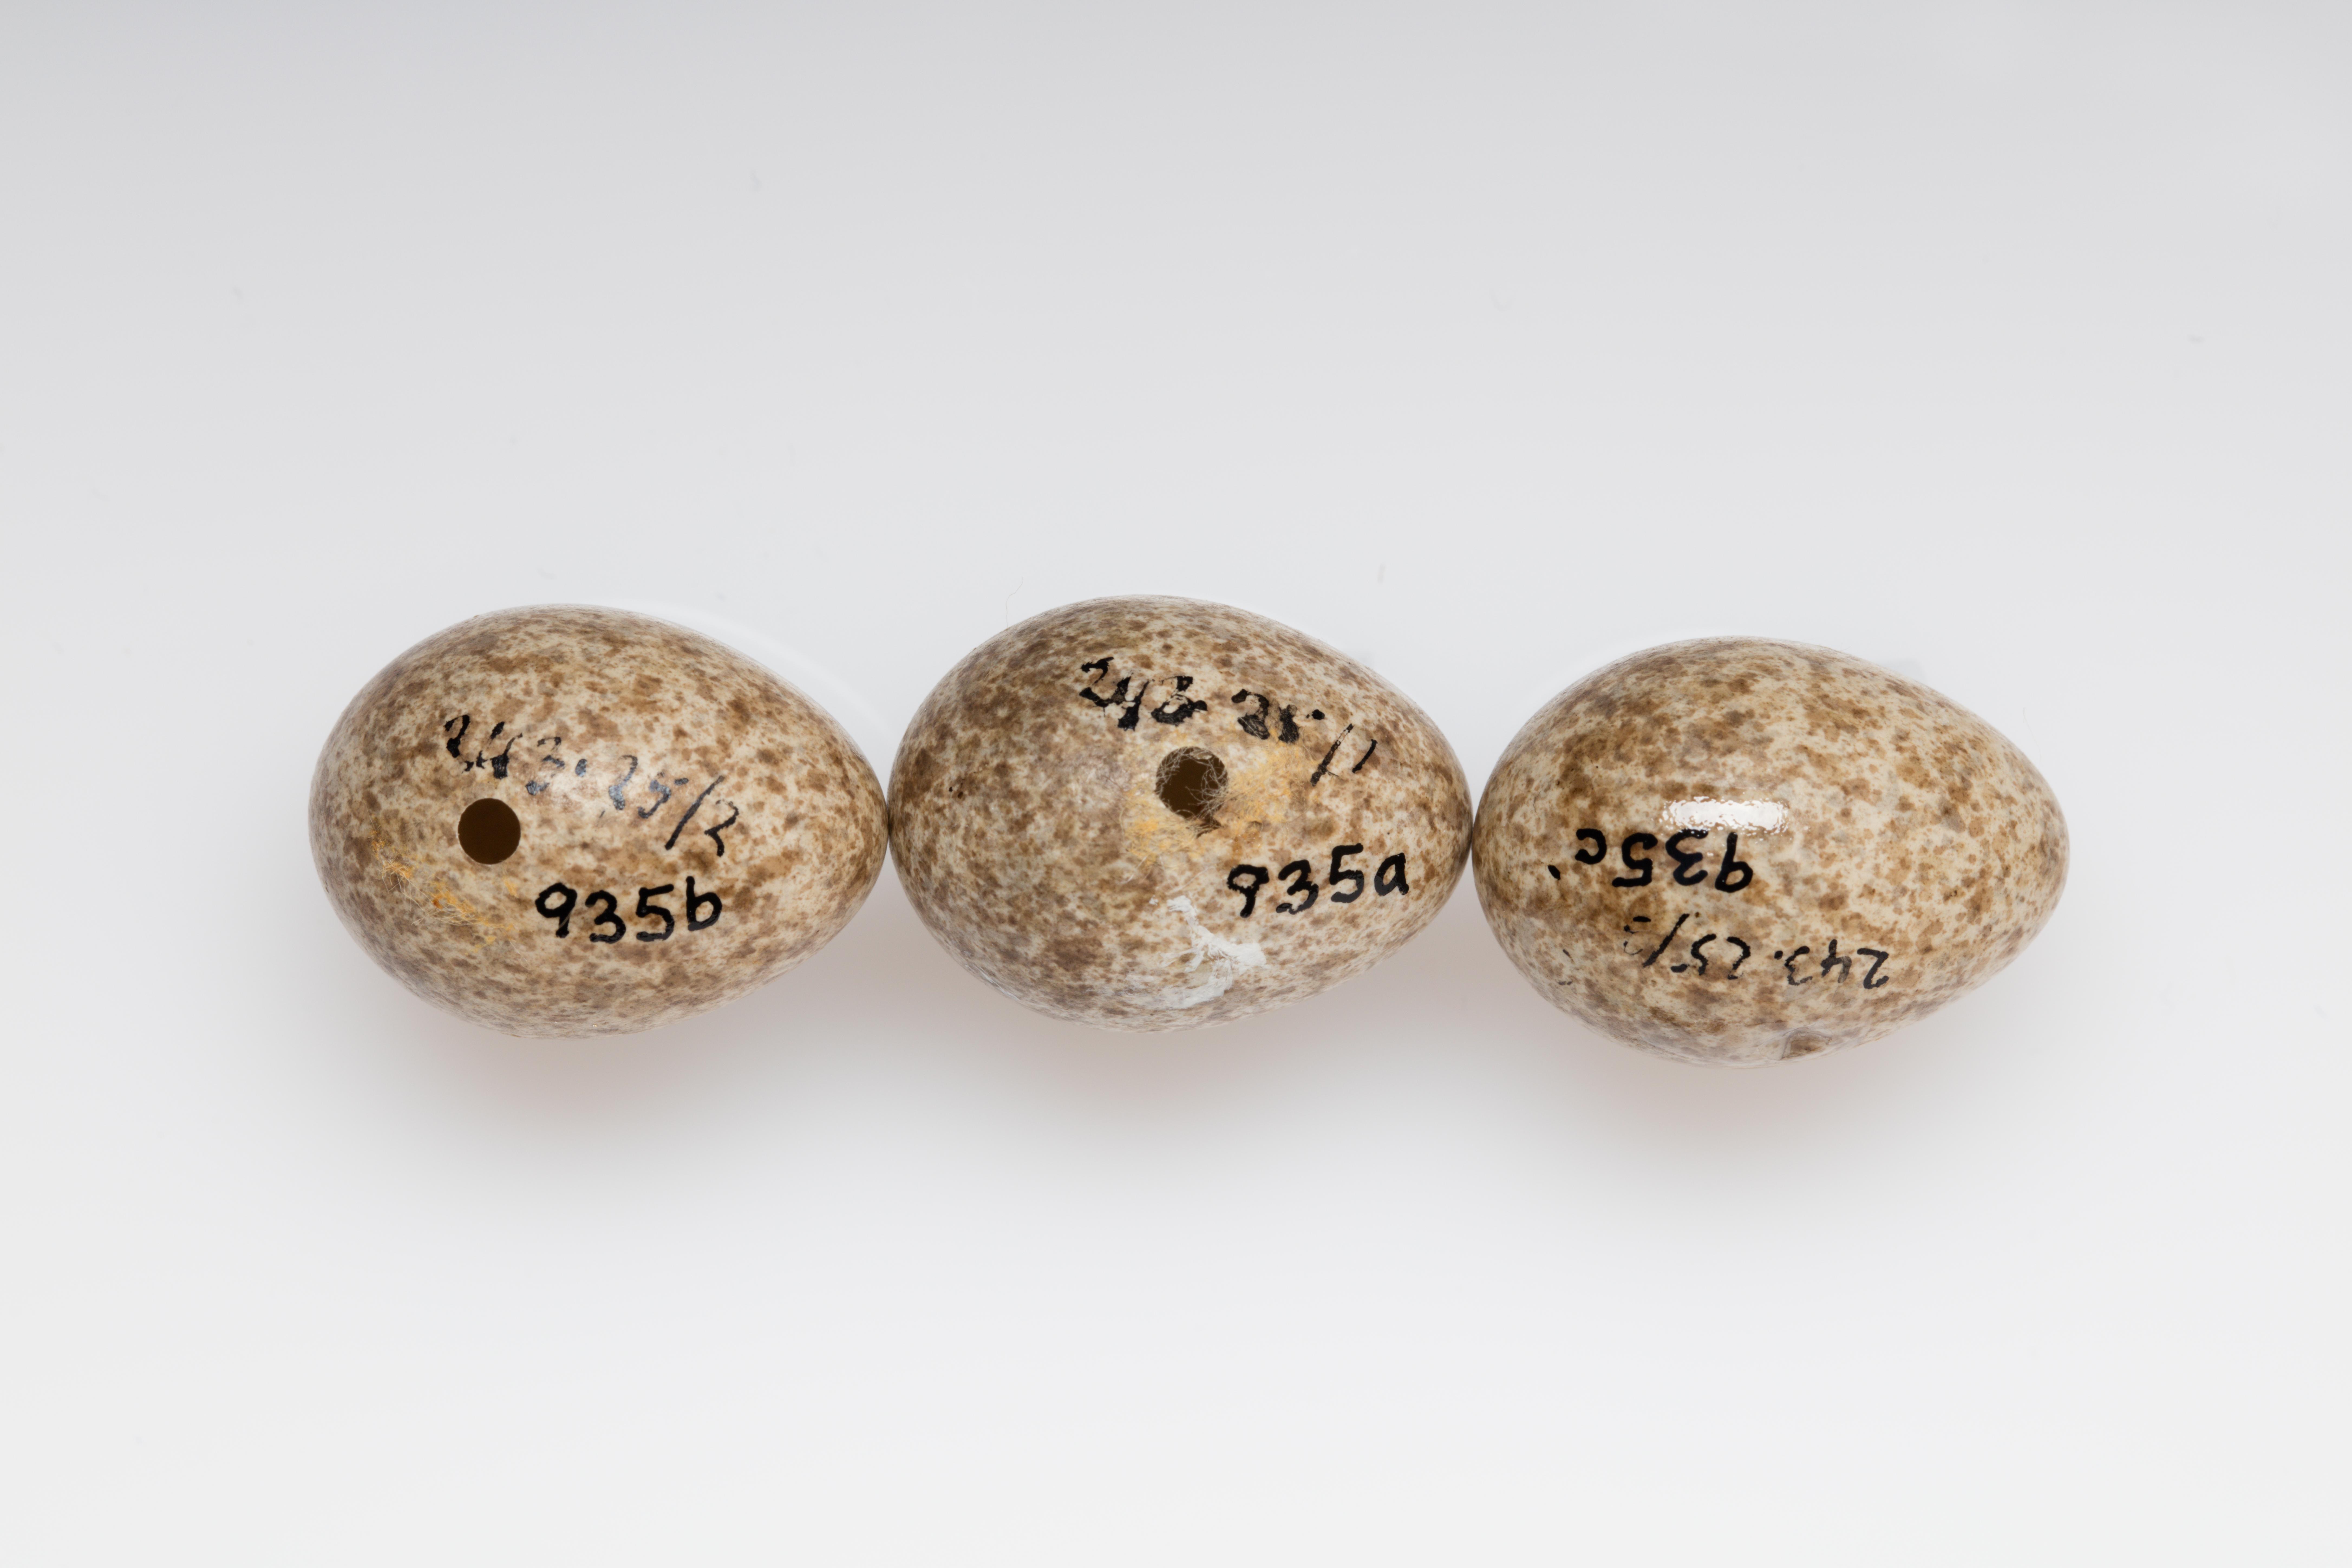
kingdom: Animalia
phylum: Chordata
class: Aves
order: Passeriformes
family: Alaudidae
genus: Alauda
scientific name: Alauda arvensis
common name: Eurasian skylark
